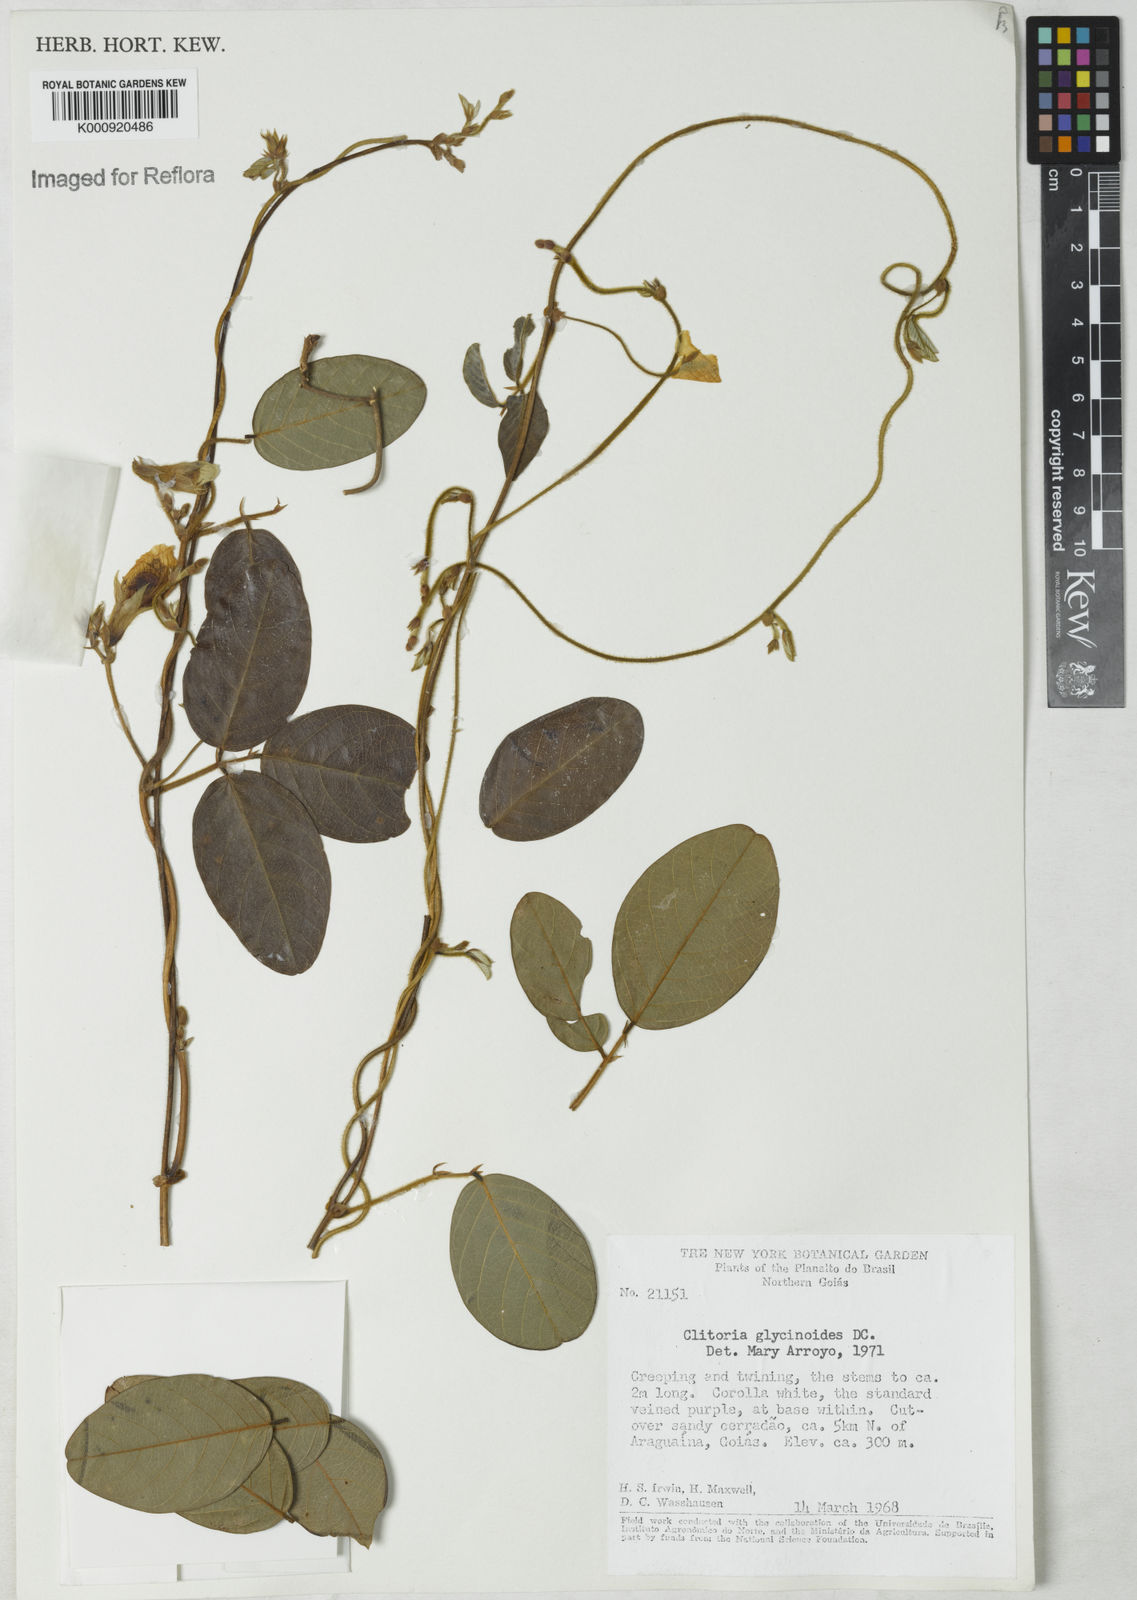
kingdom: Plantae
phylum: Tracheophyta
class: Magnoliopsida
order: Fabales
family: Fabaceae
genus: Clitoria
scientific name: Clitoria
